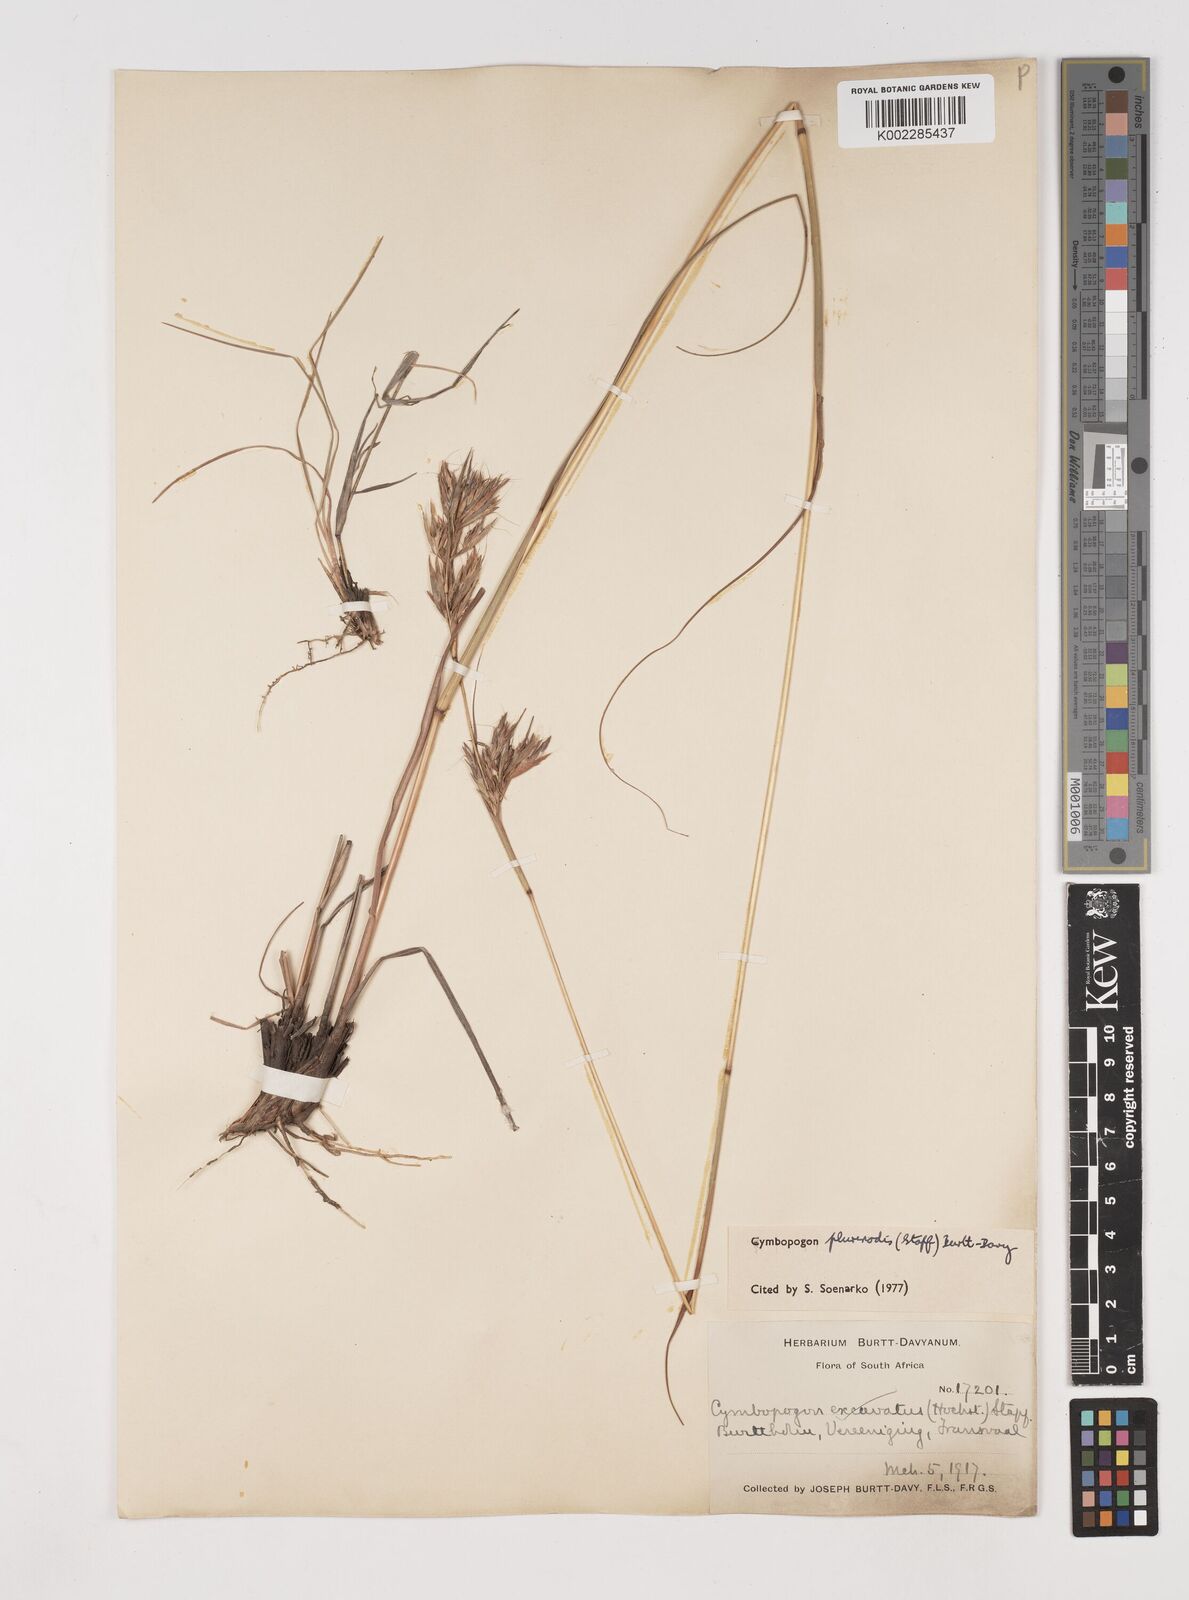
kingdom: Plantae
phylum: Tracheophyta
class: Liliopsida
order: Poales
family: Poaceae
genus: Cymbopogon
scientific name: Cymbopogon
